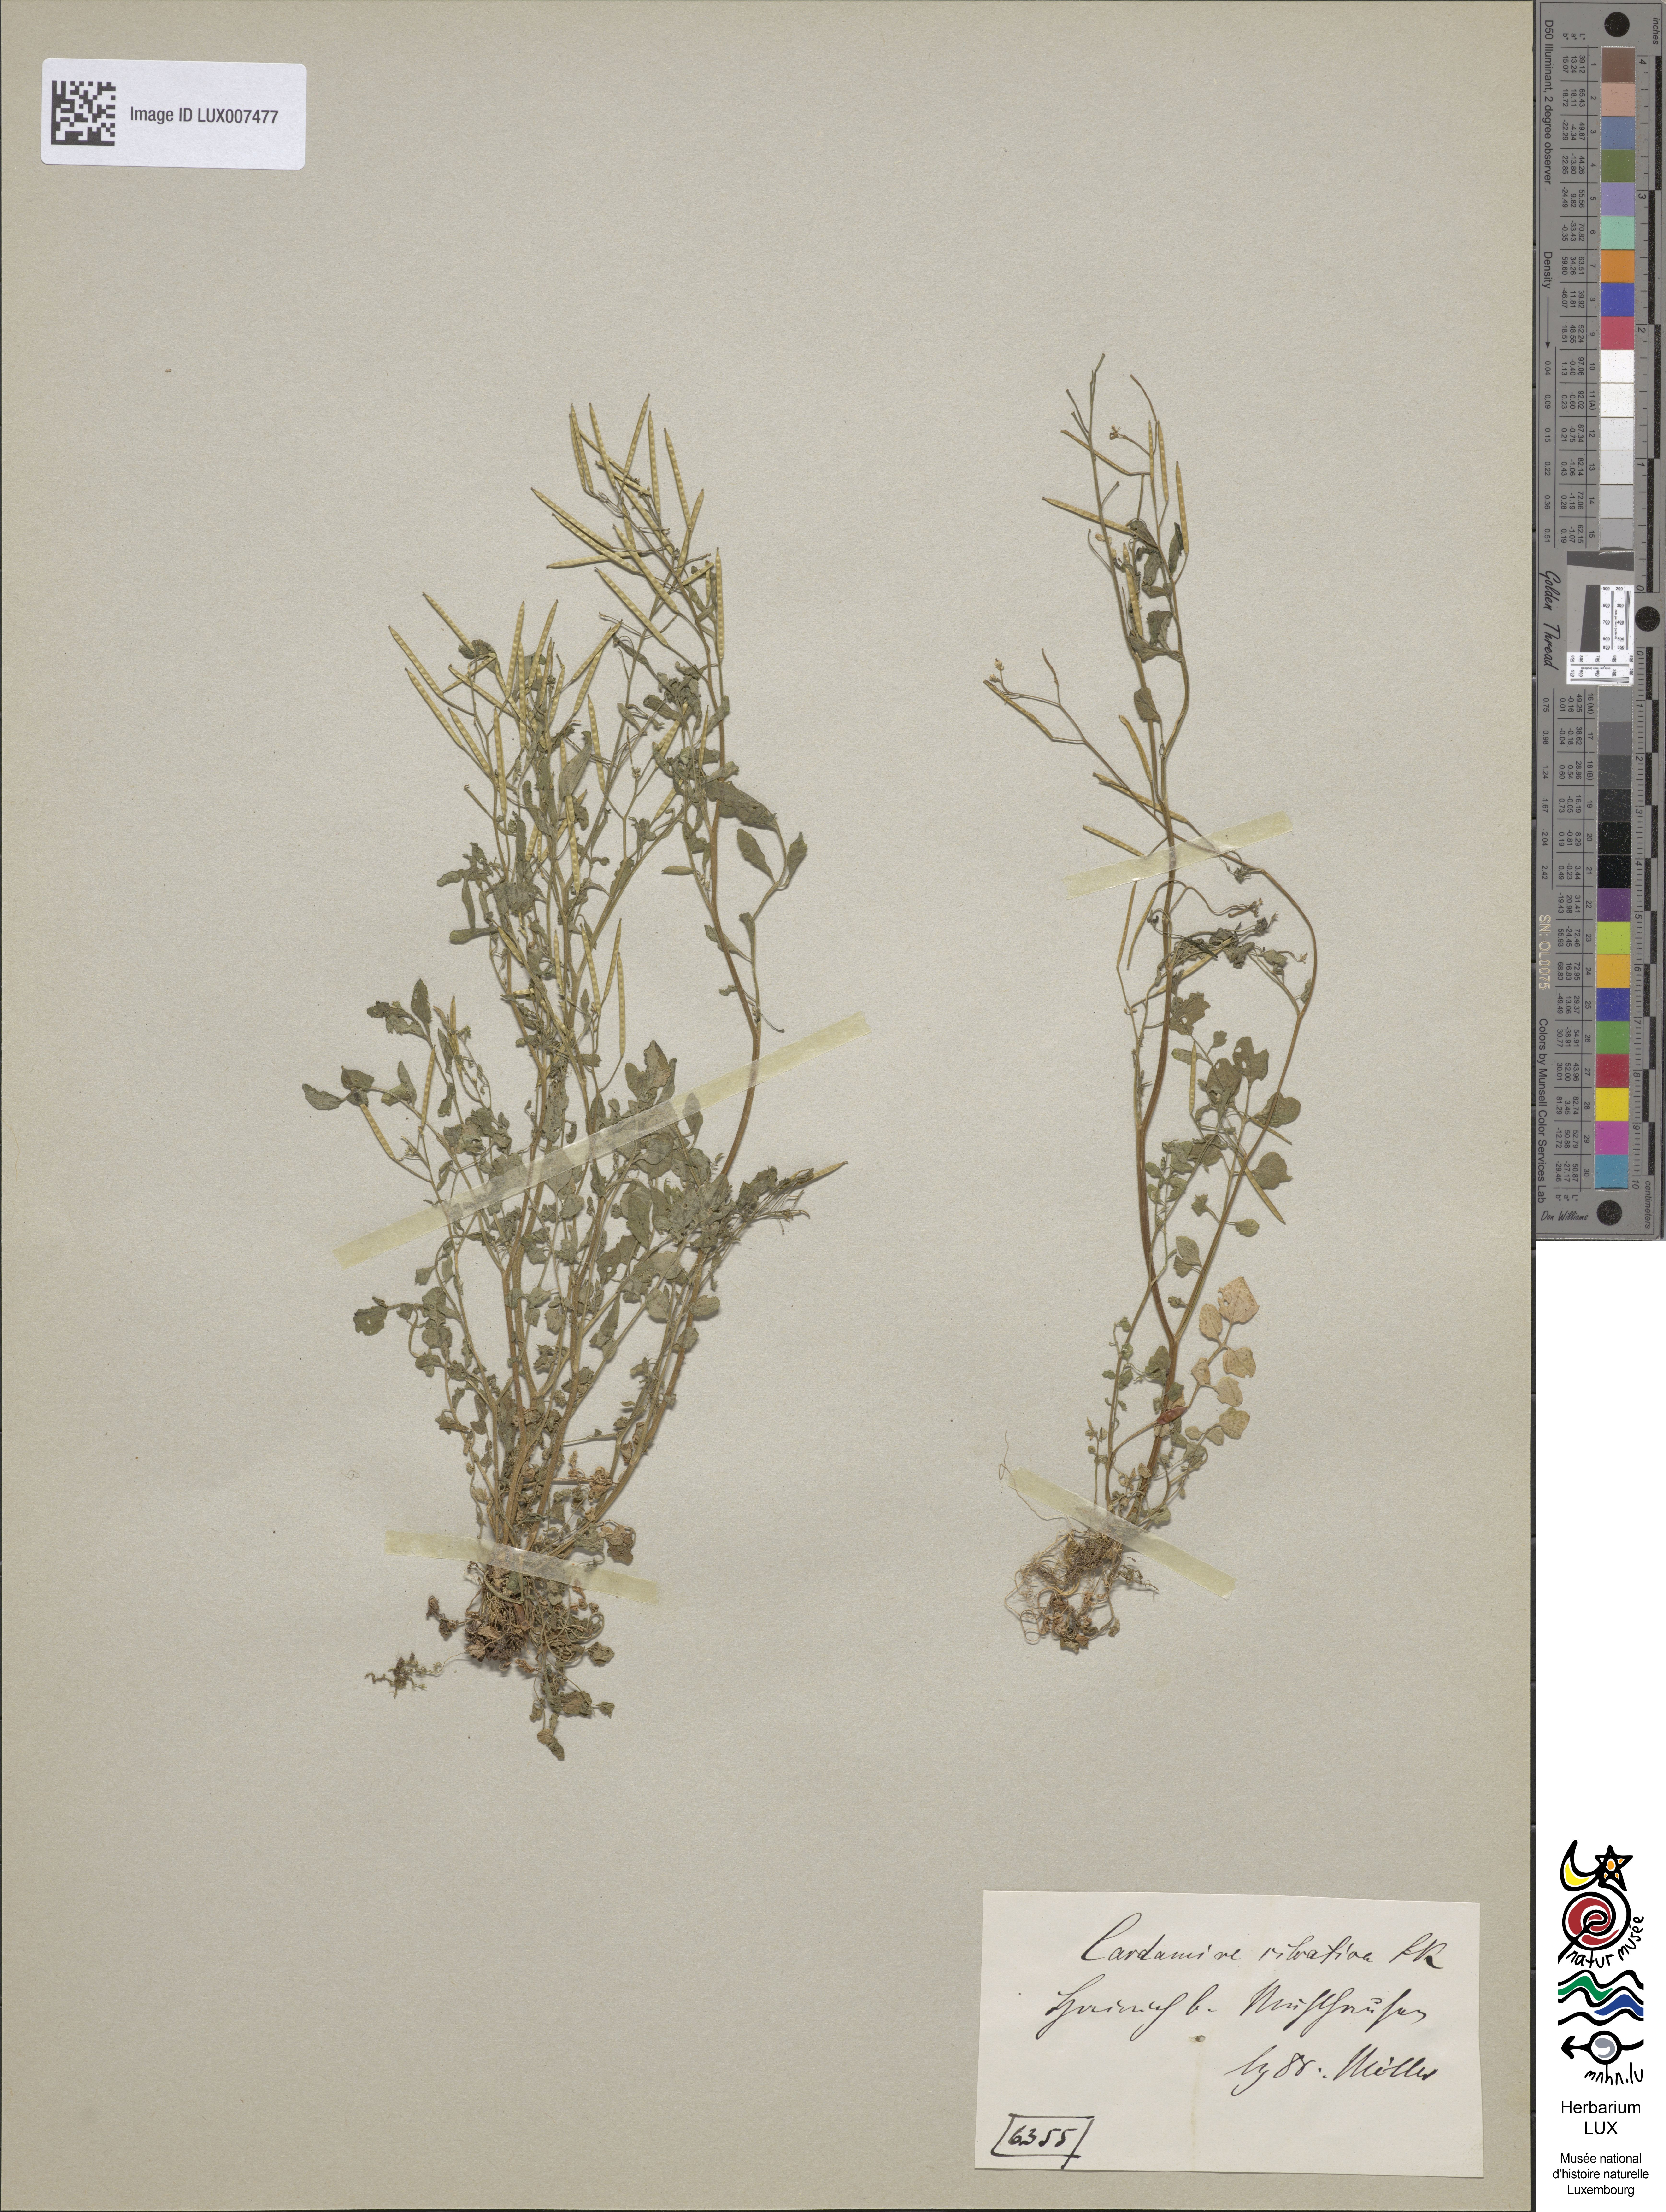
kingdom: Plantae
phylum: Tracheophyta
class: Magnoliopsida
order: Brassicales
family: Brassicaceae
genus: Cardamine
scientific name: Cardamine flexuosa
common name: Woodland bittercress
